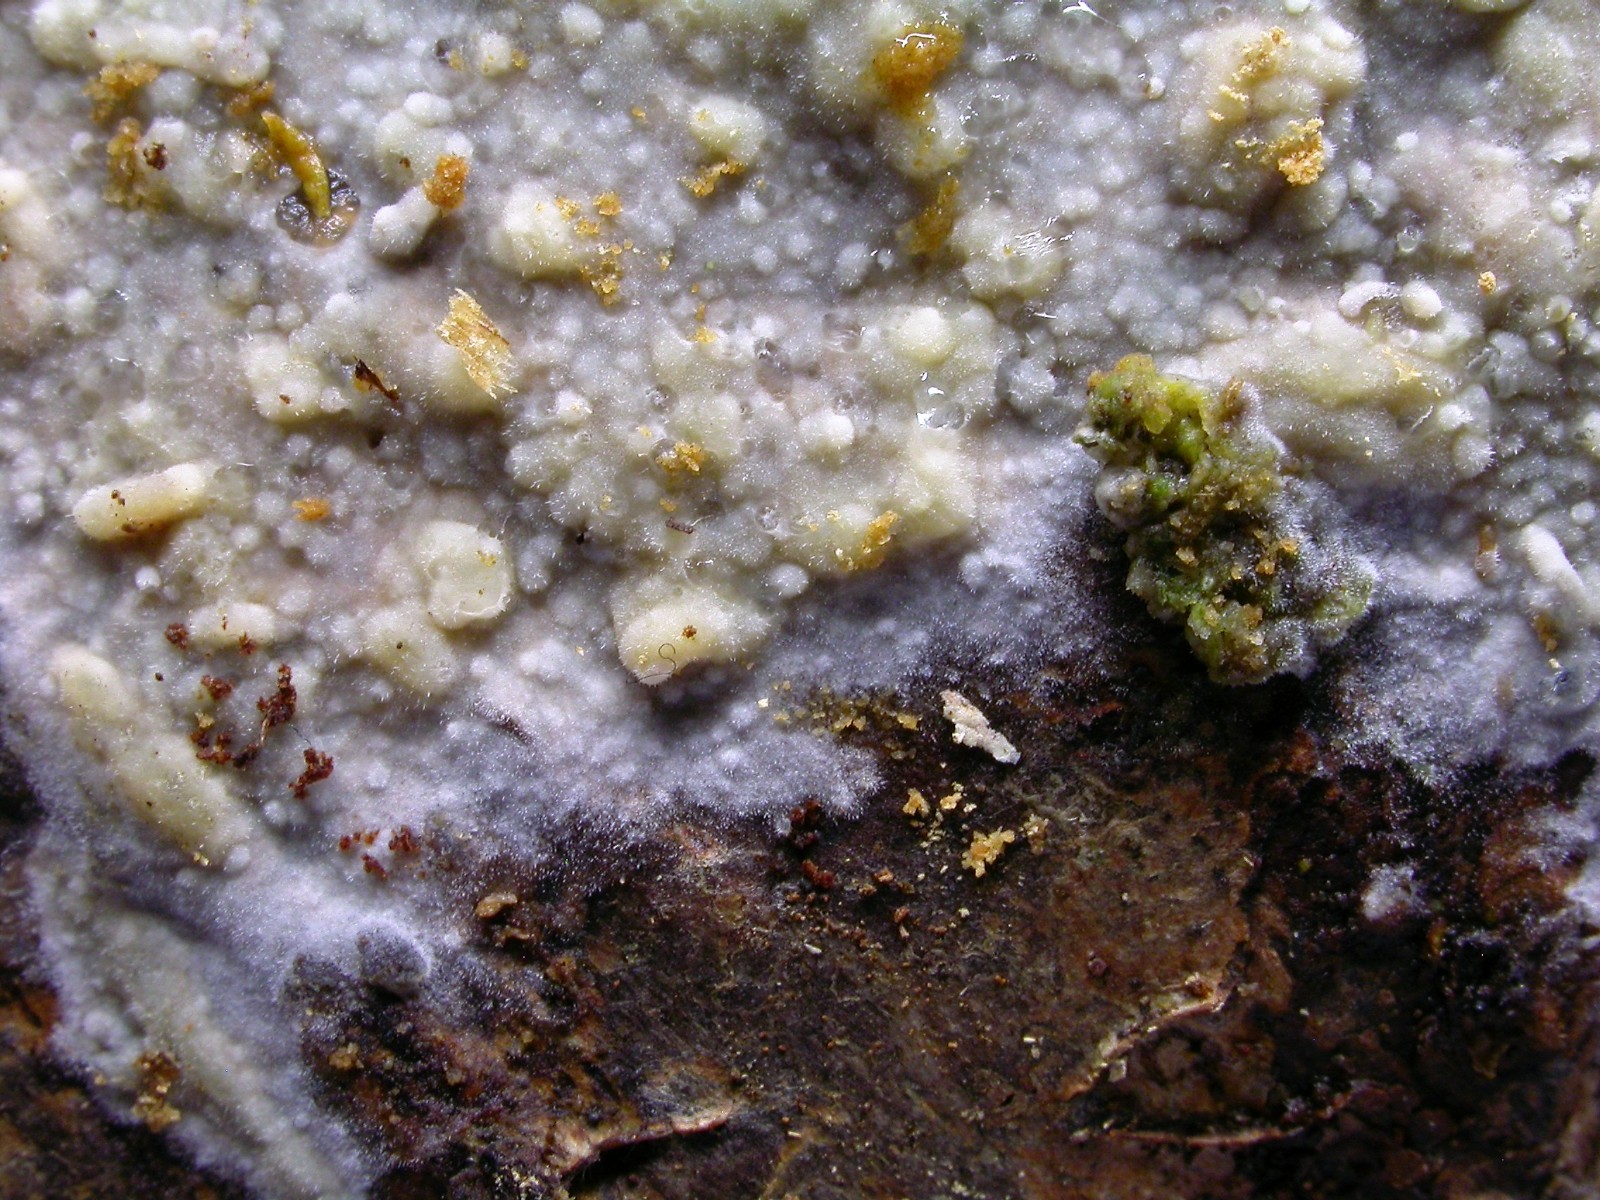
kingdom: Fungi
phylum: Basidiomycota
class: Agaricomycetes
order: Polyporales
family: Meruliaceae
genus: Scopuloides
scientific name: Scopuloides rimosa
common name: dughinde
